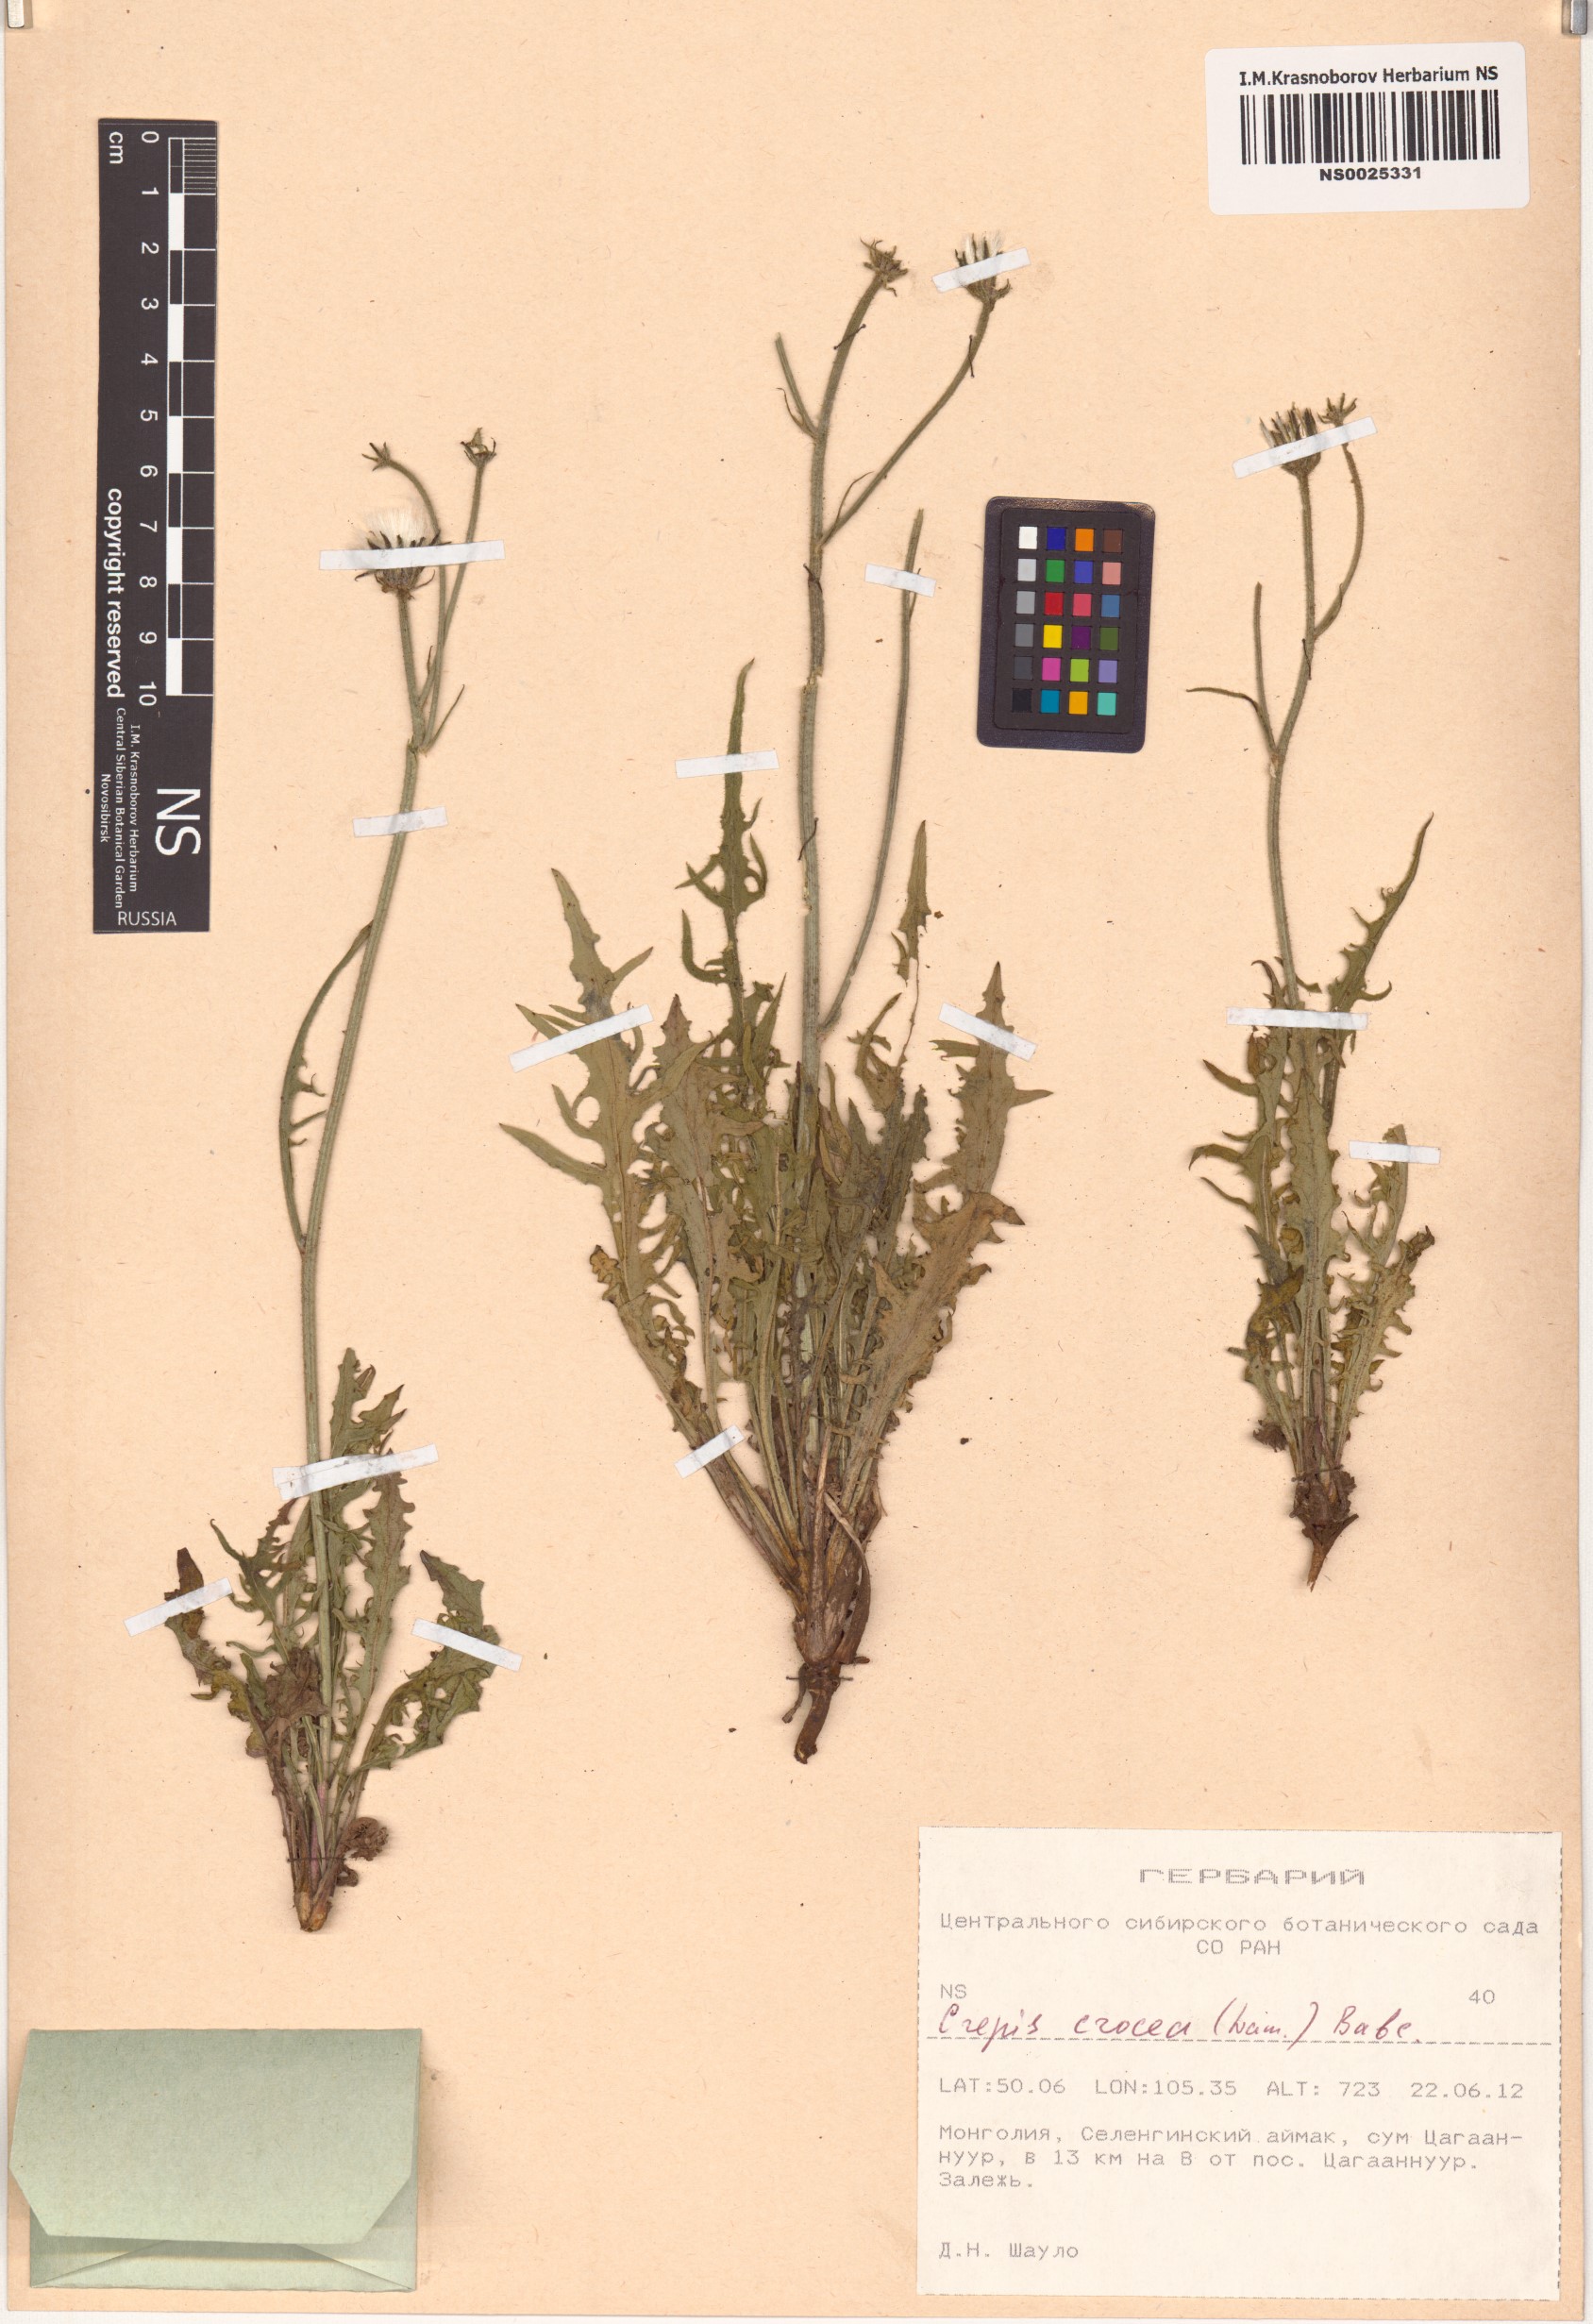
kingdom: Plantae
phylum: Tracheophyta
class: Magnoliopsida
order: Asterales
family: Asteraceae
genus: Crepis
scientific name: Crepis crocea
